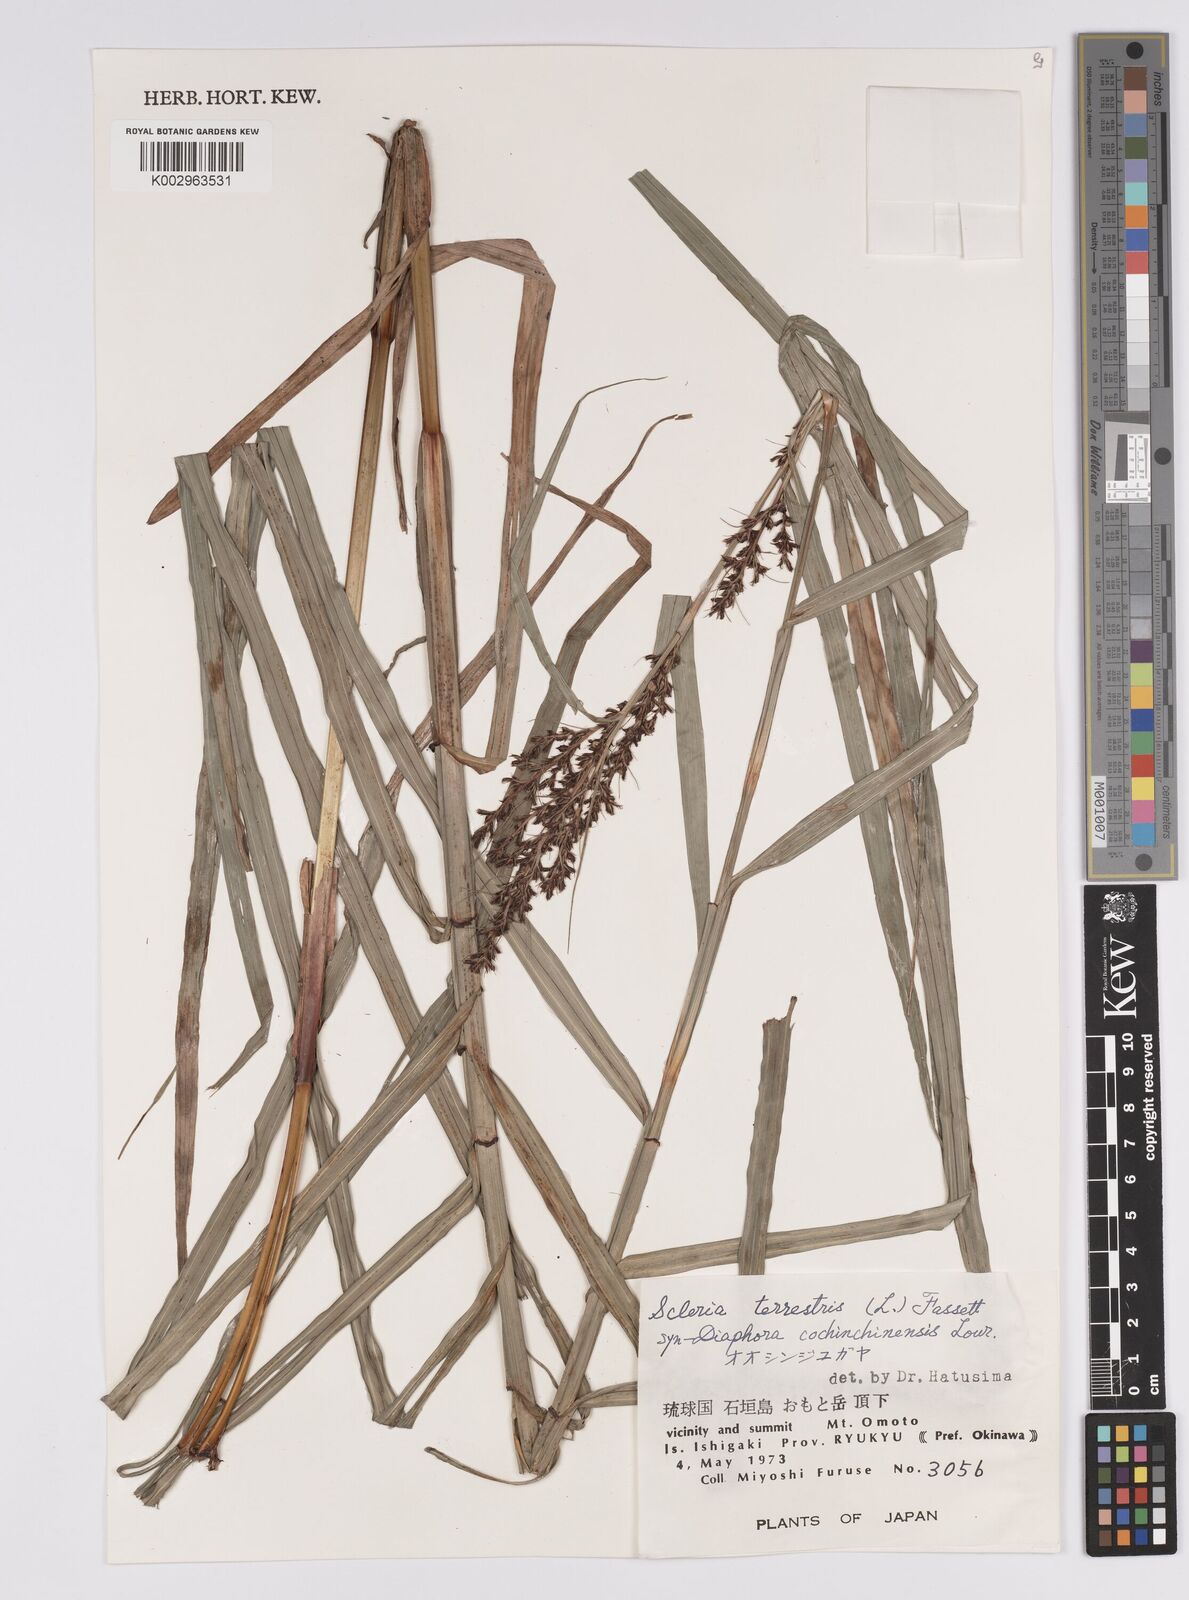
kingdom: Plantae
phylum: Tracheophyta
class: Liliopsida
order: Poales
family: Cyperaceae
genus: Scleria
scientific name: Scleria terrestris
